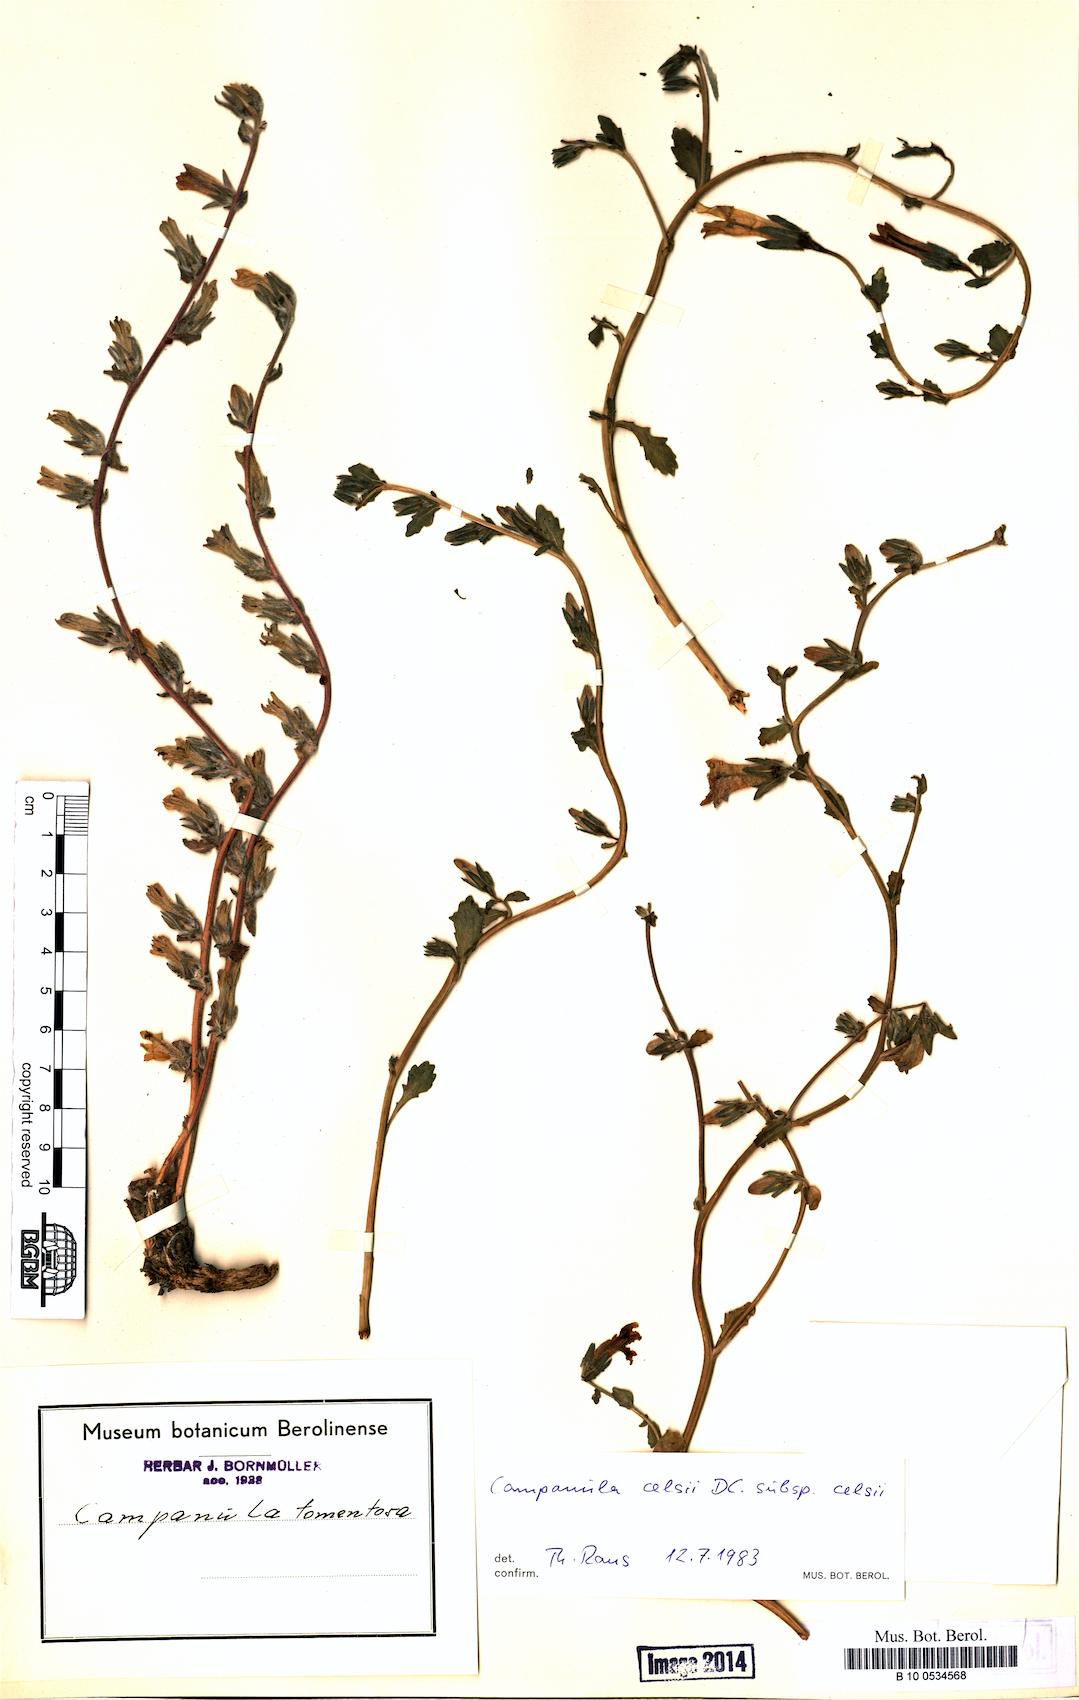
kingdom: Plantae
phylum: Tracheophyta
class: Magnoliopsida
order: Asterales
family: Campanulaceae
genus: Campanula
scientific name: Campanula celsii
